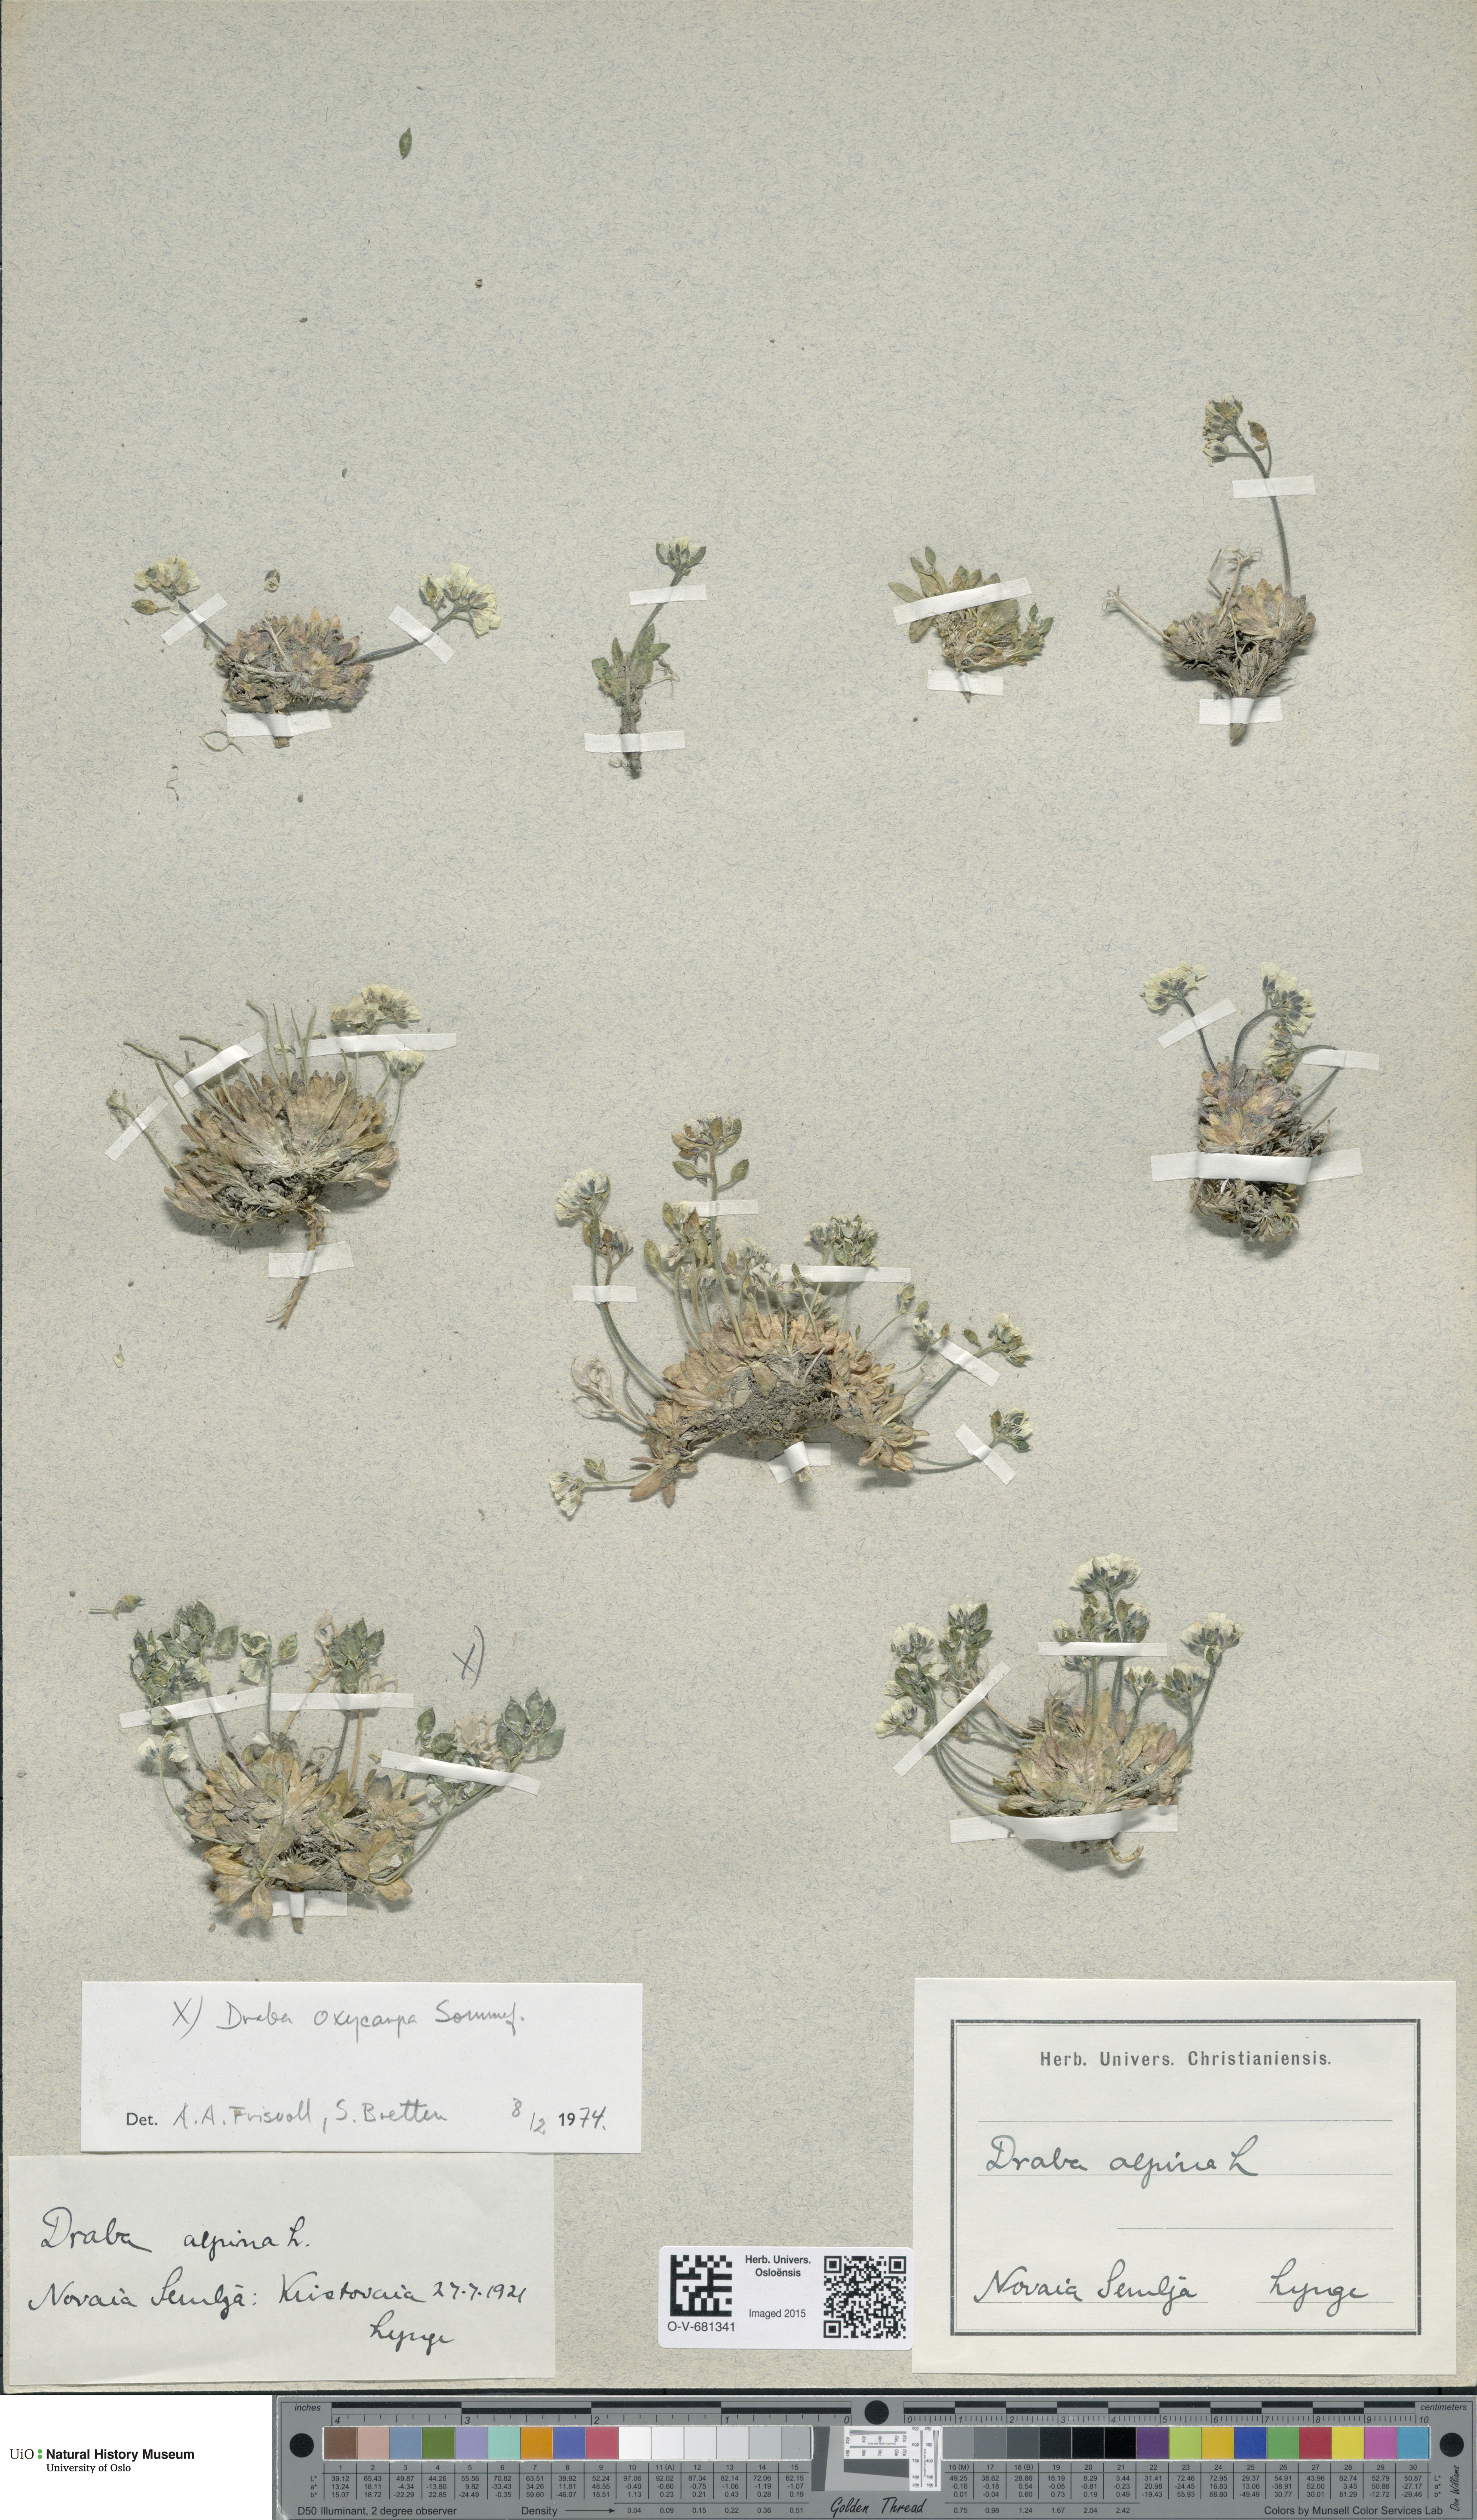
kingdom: Plantae
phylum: Tracheophyta
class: Magnoliopsida
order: Brassicales
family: Brassicaceae
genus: Draba
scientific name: Draba alpina
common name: Alpine draba
